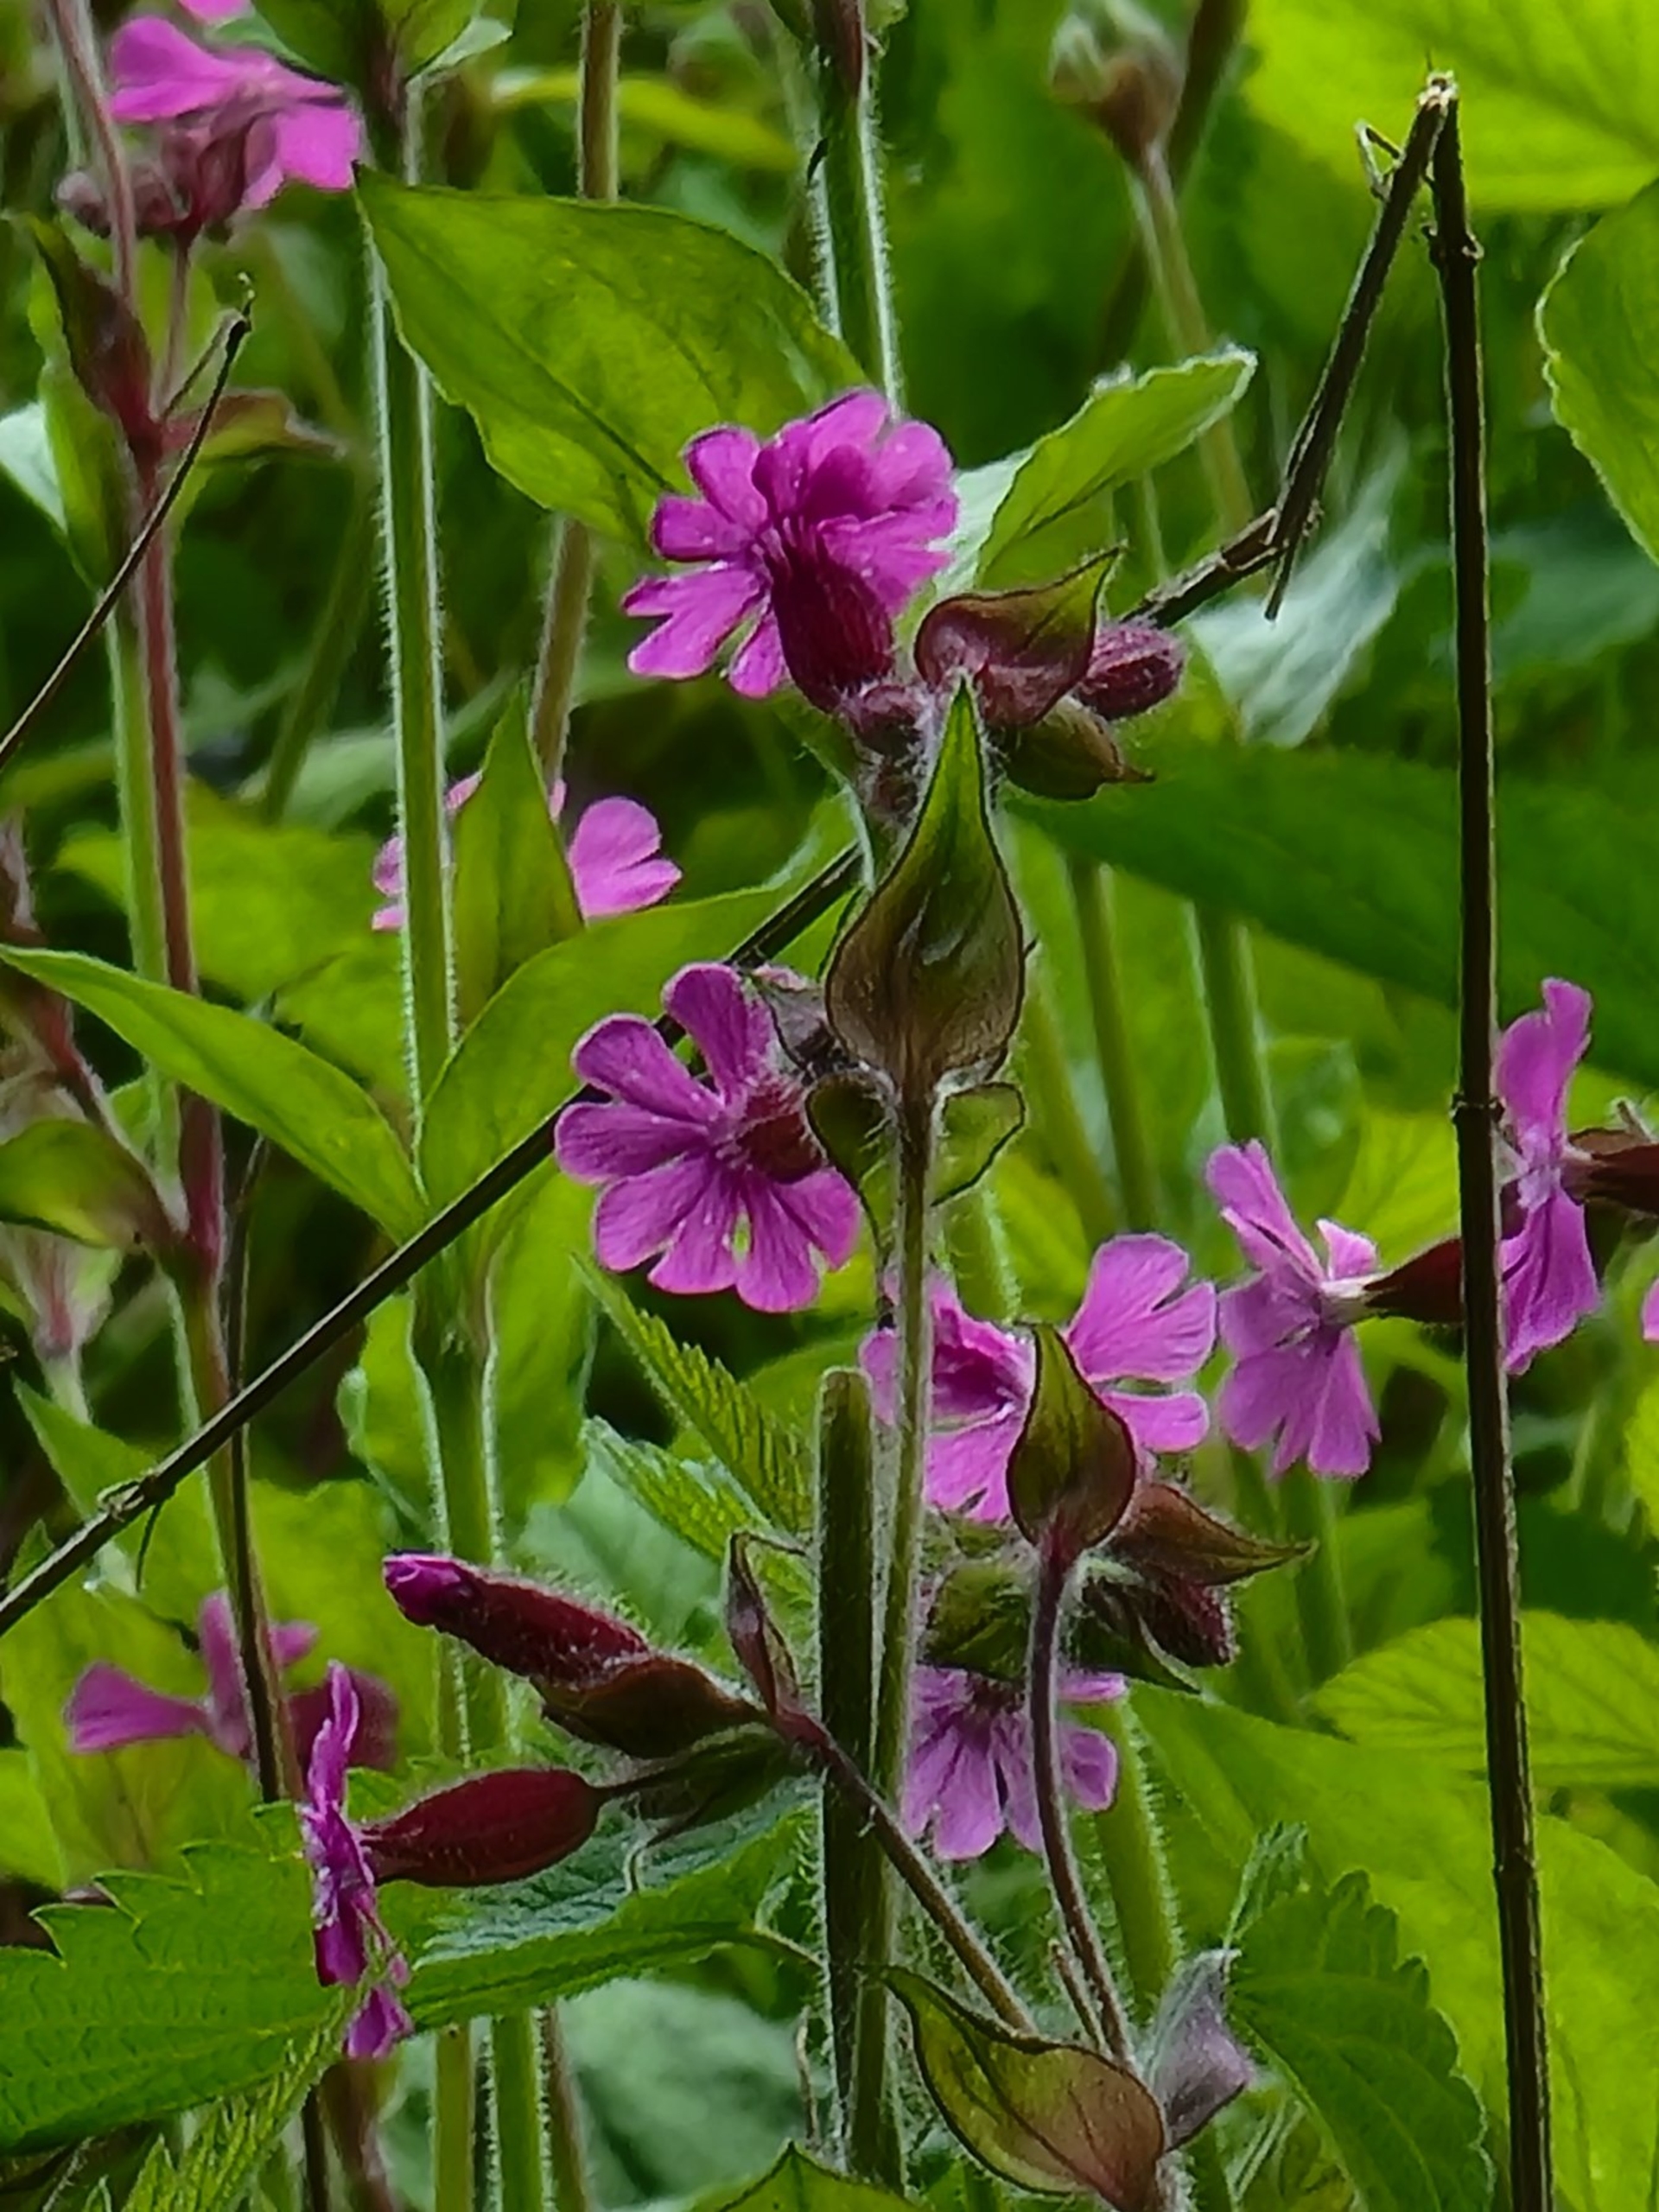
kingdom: Plantae
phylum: Tracheophyta
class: Magnoliopsida
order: Caryophyllales
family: Caryophyllaceae
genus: Silene
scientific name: Silene dioica
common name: Dagpragtstjerne
